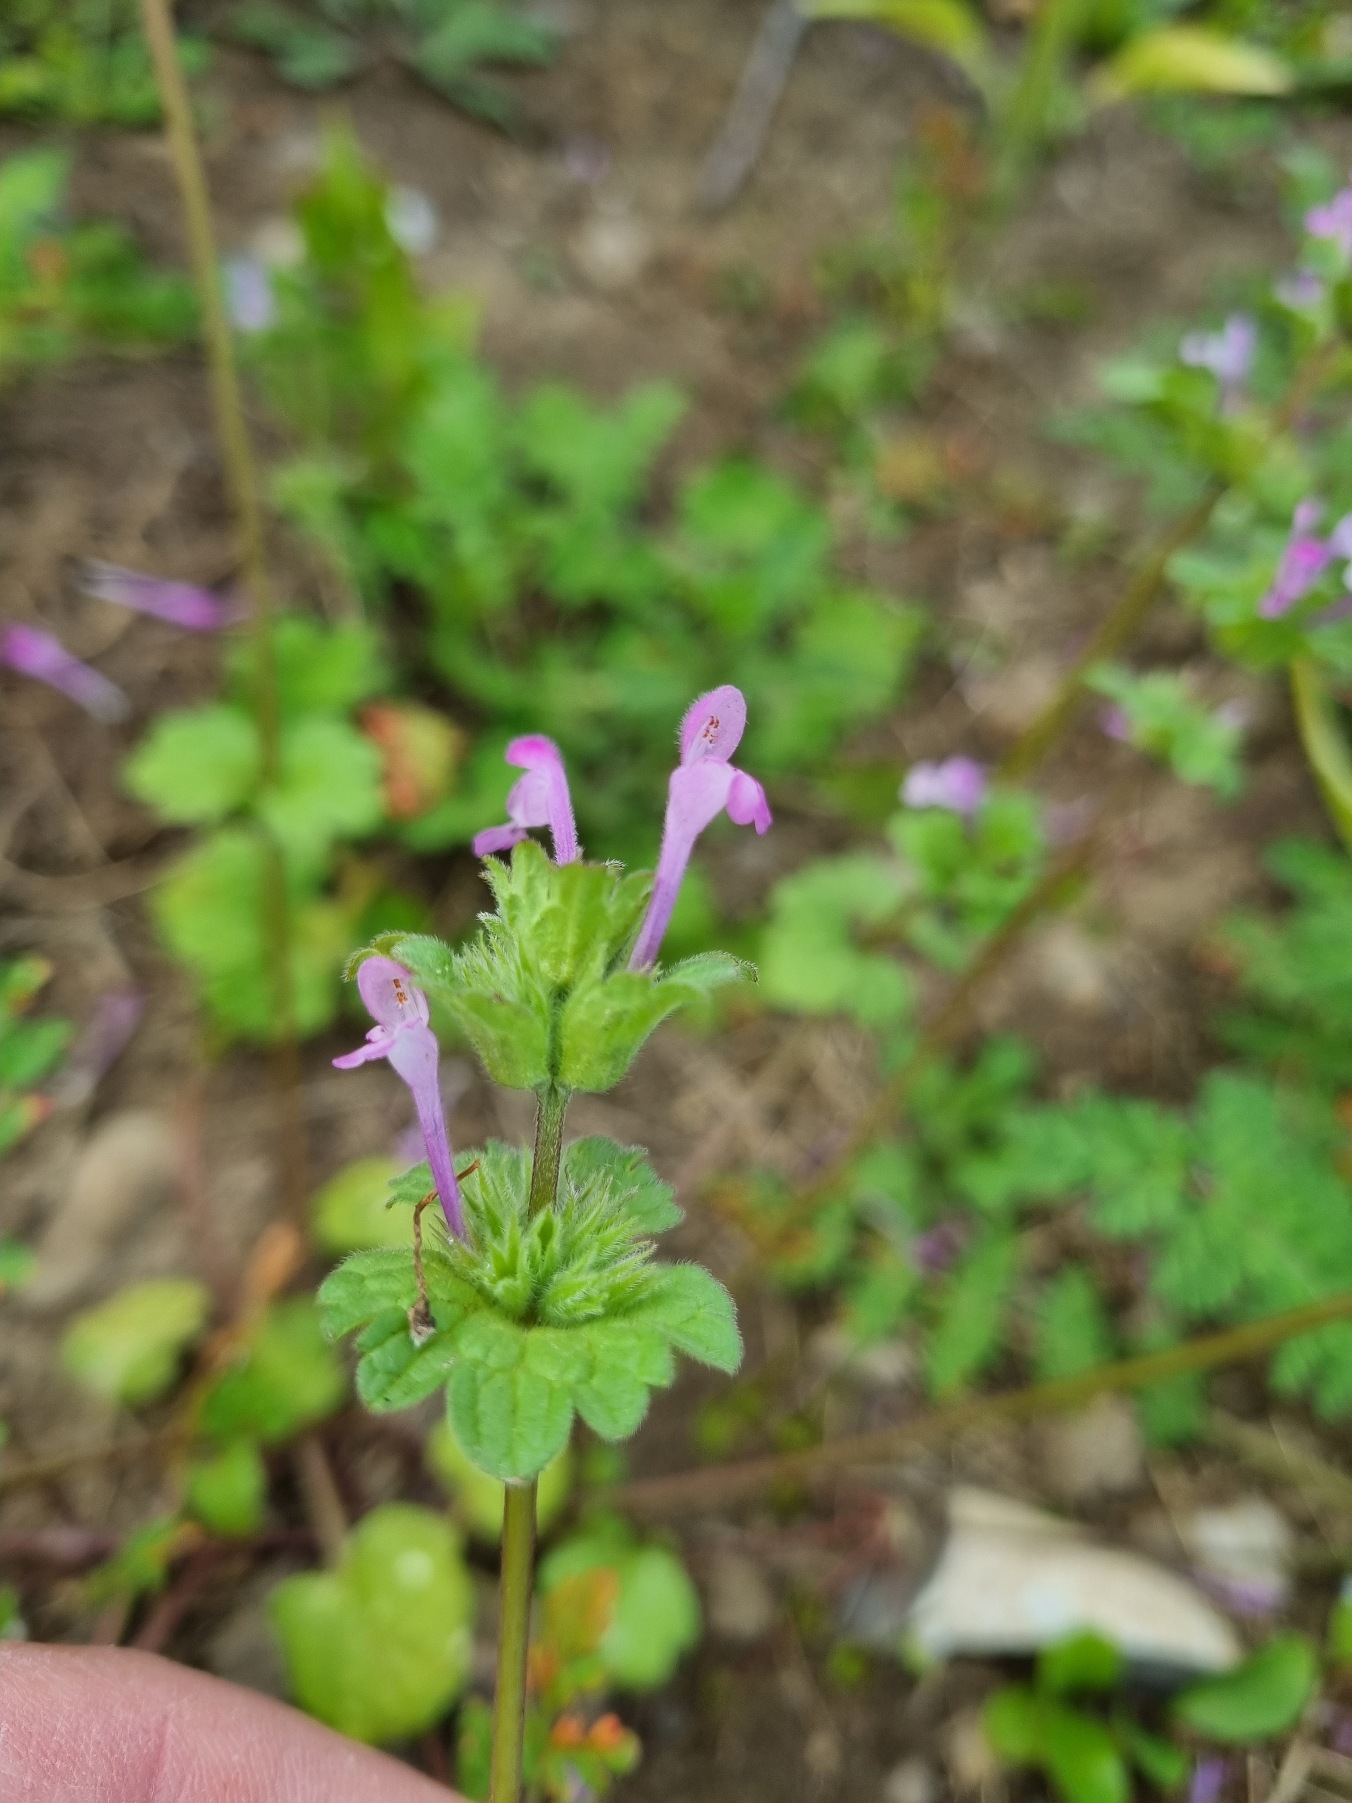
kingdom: Plantae
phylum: Tracheophyta
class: Magnoliopsida
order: Lamiales
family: Lamiaceae
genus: Lamium
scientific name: Lamium amplexicaule
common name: Liden tvetand
